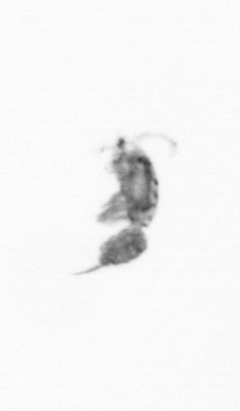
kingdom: Animalia
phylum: Arthropoda
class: Copepoda
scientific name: Copepoda
